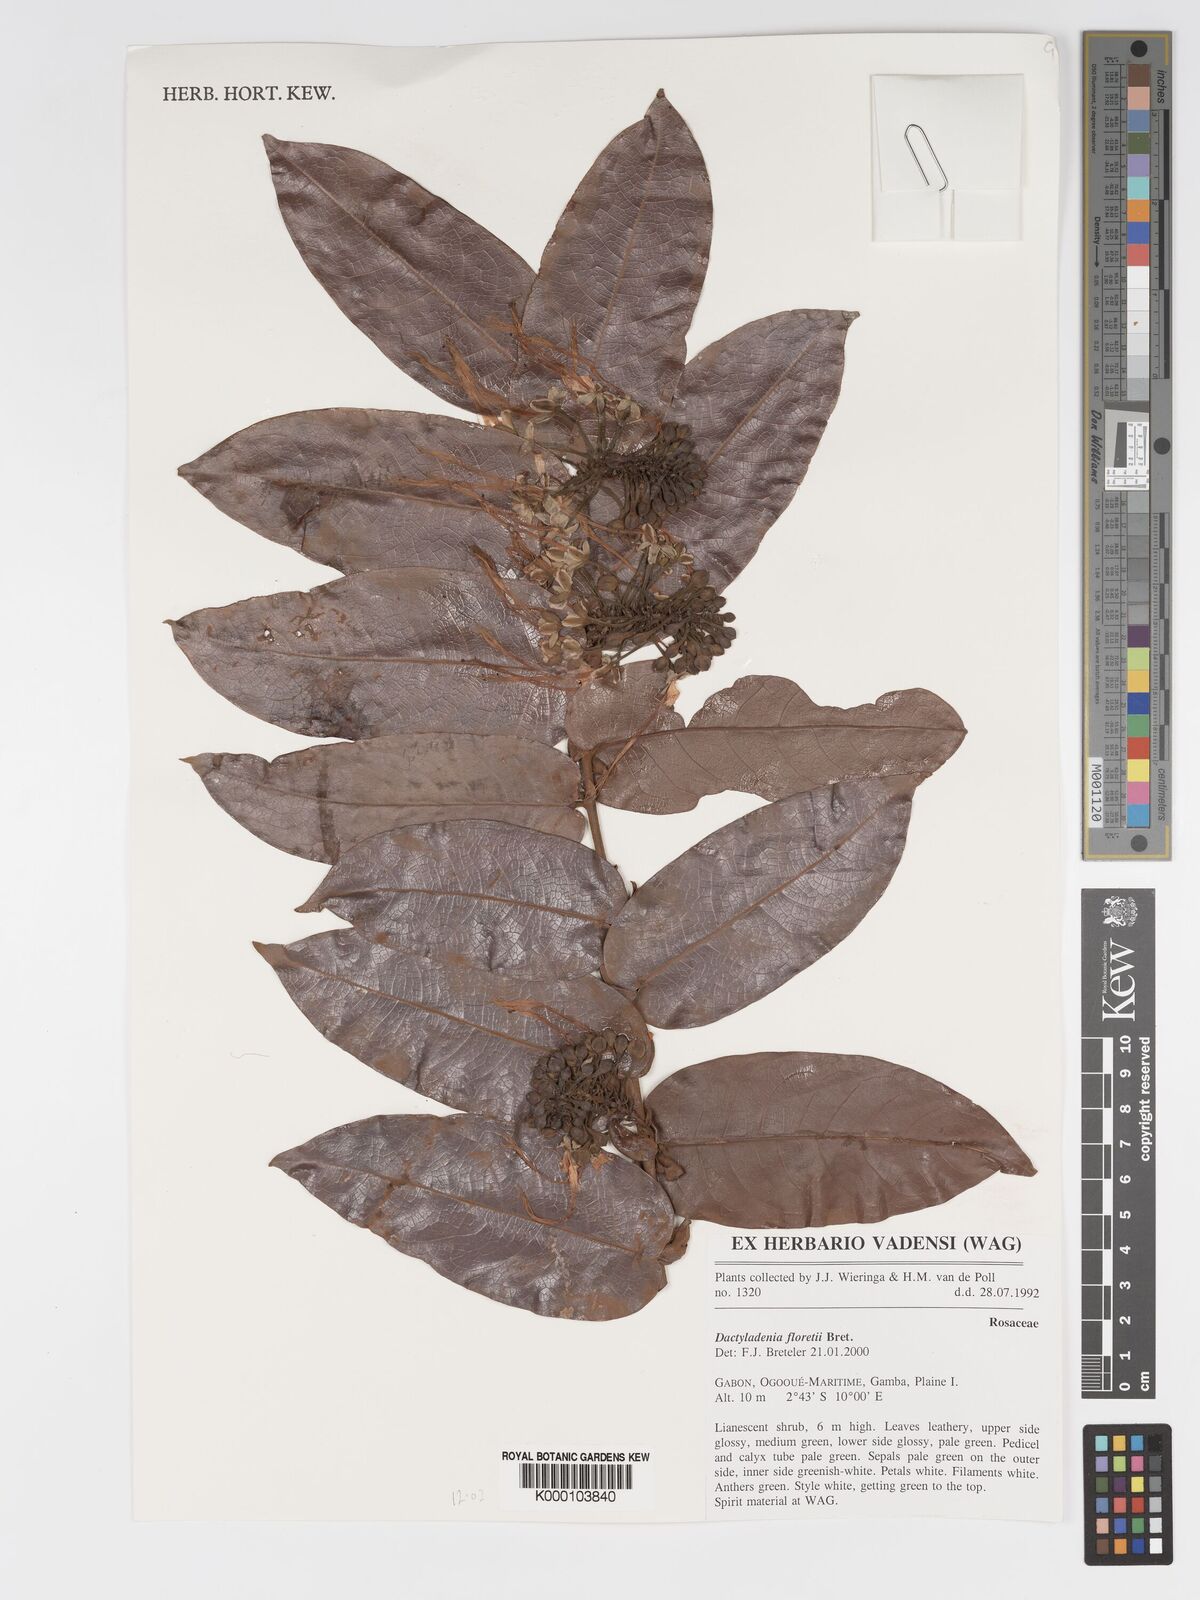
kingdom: Plantae
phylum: Tracheophyta
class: Magnoliopsida
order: Malpighiales
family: Chrysobalanaceae
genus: Dactyladenia
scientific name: Dactyladenia floretii
